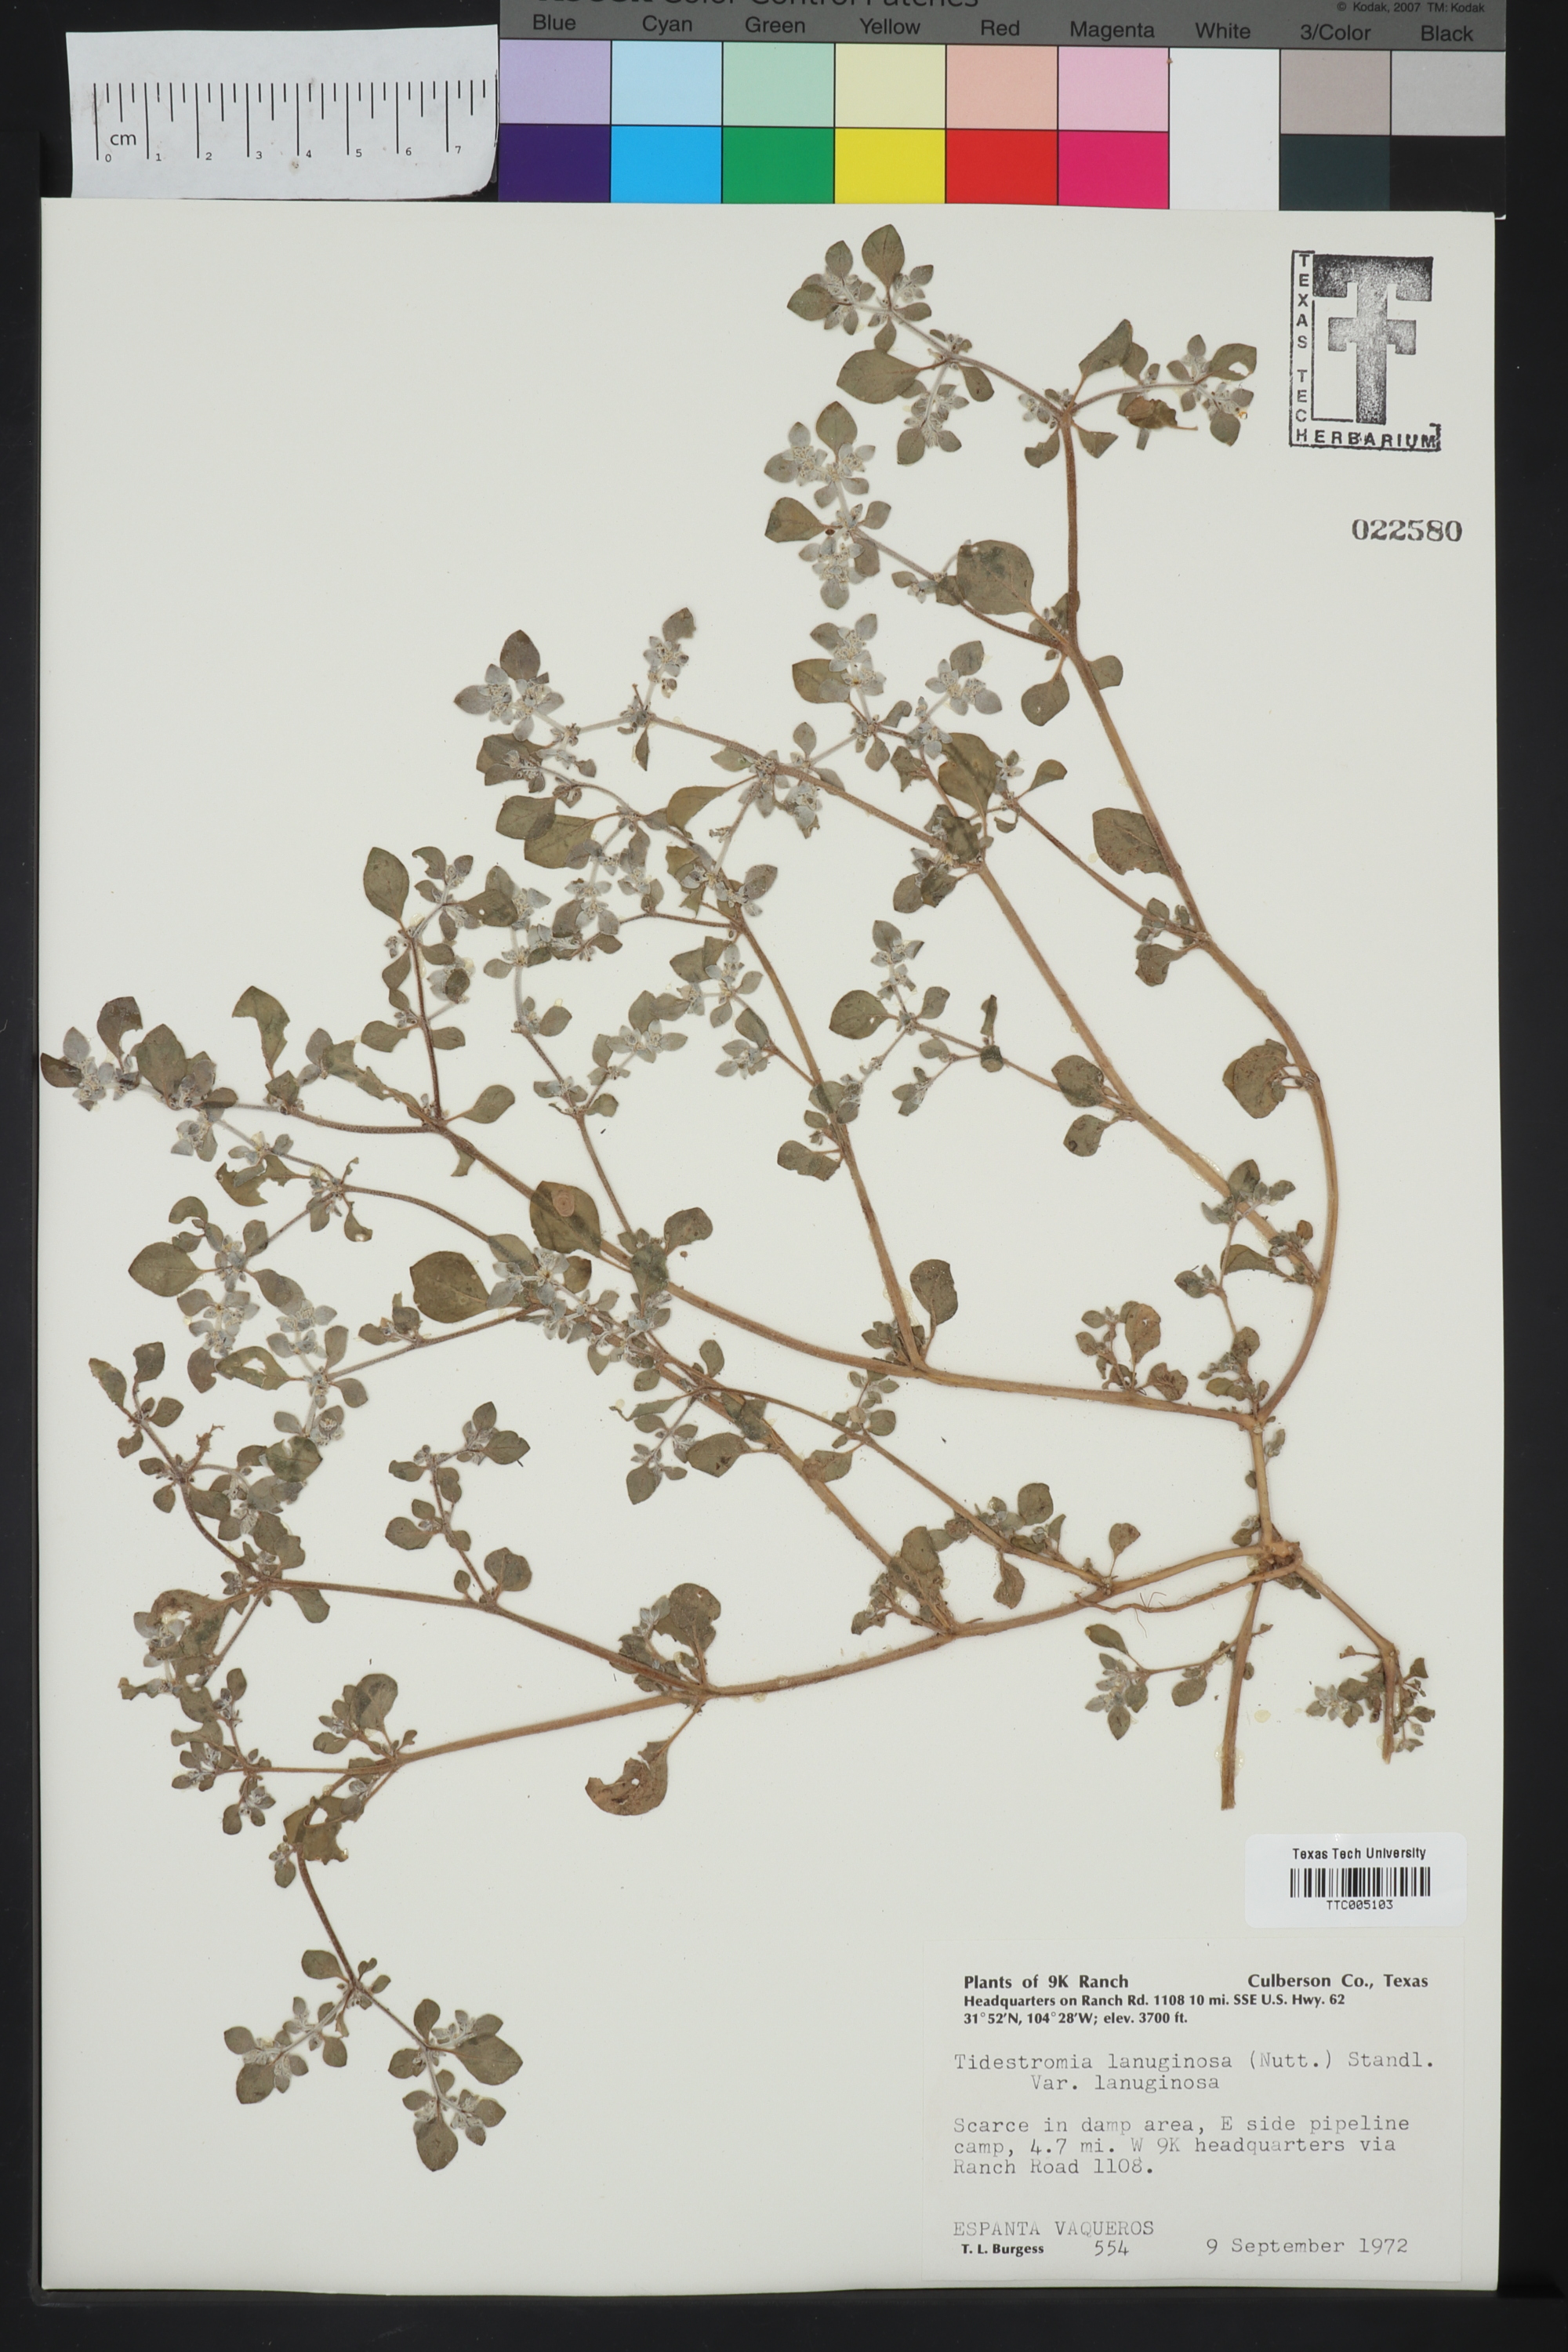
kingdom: Plantae
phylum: Tracheophyta
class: Magnoliopsida
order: Caryophyllales
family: Amaranthaceae
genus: Tidestromia
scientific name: Tidestromia lanuginosa
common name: Woolly tidestromia
